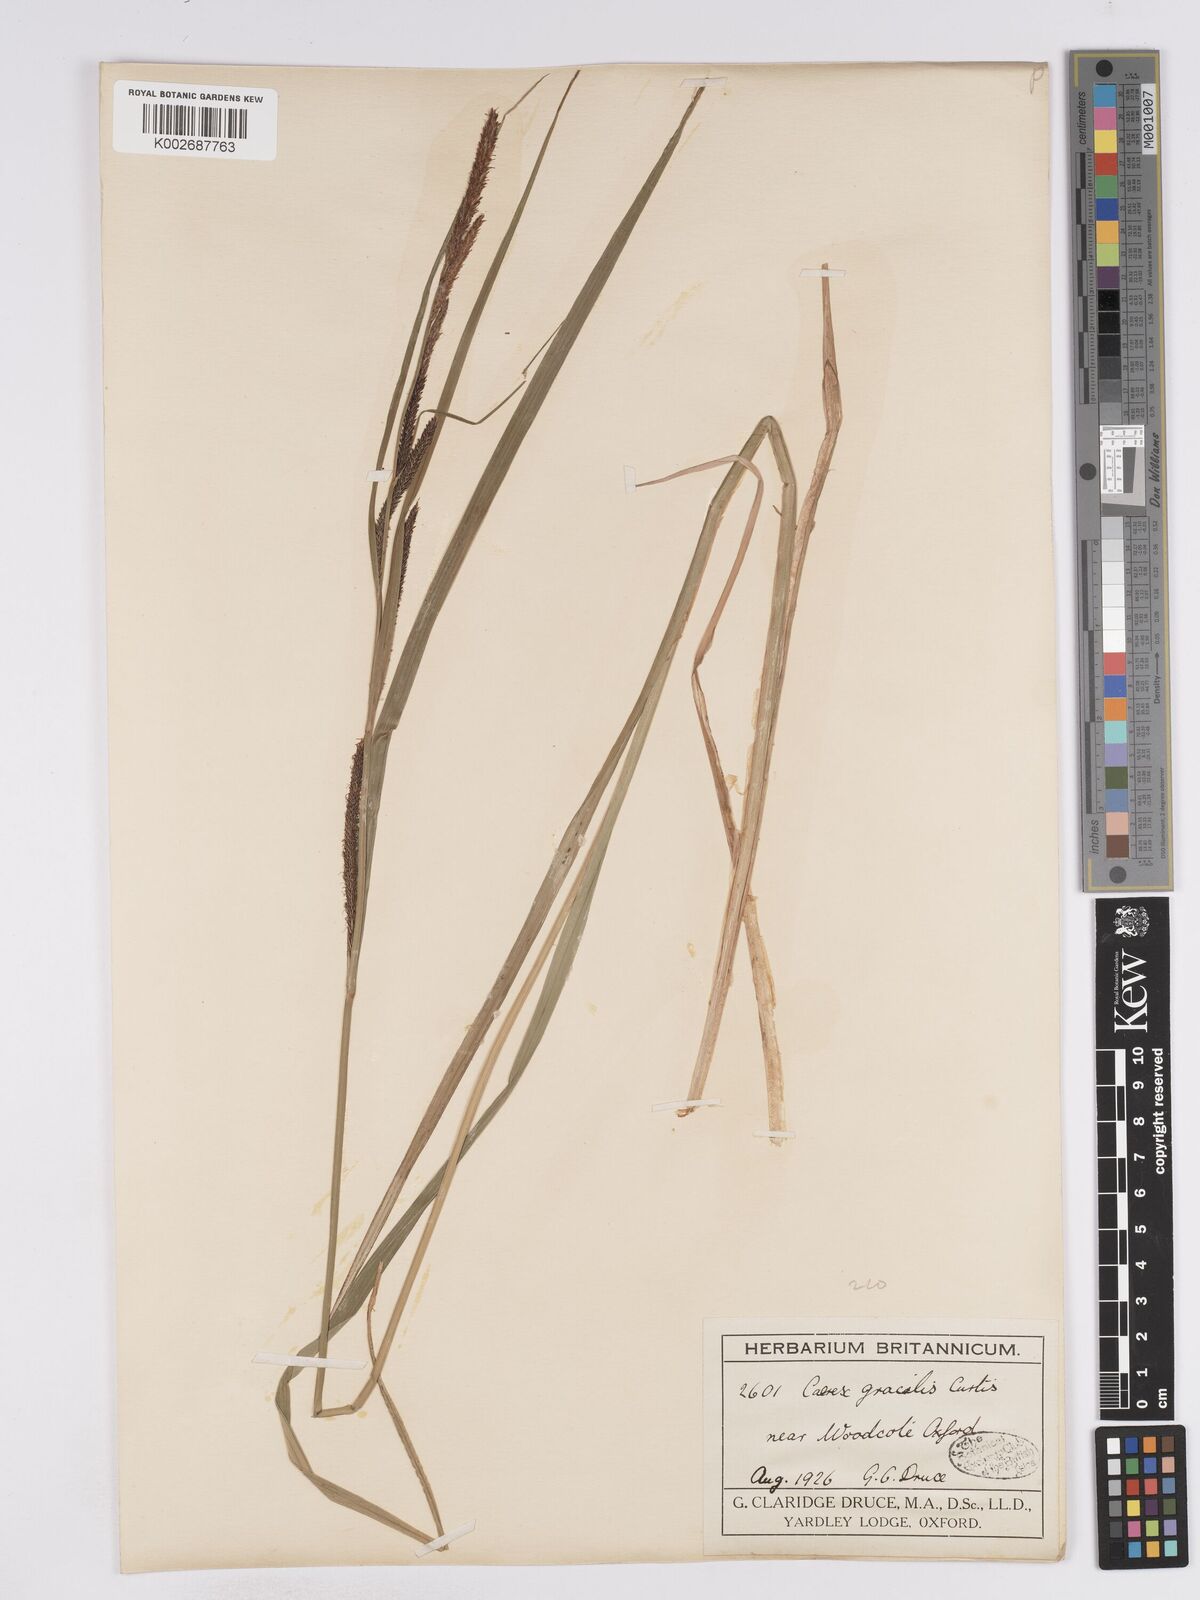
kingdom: Plantae
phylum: Tracheophyta
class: Liliopsida
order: Poales
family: Cyperaceae
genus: Carex
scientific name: Carex acuta
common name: Slender tufted-sedge
